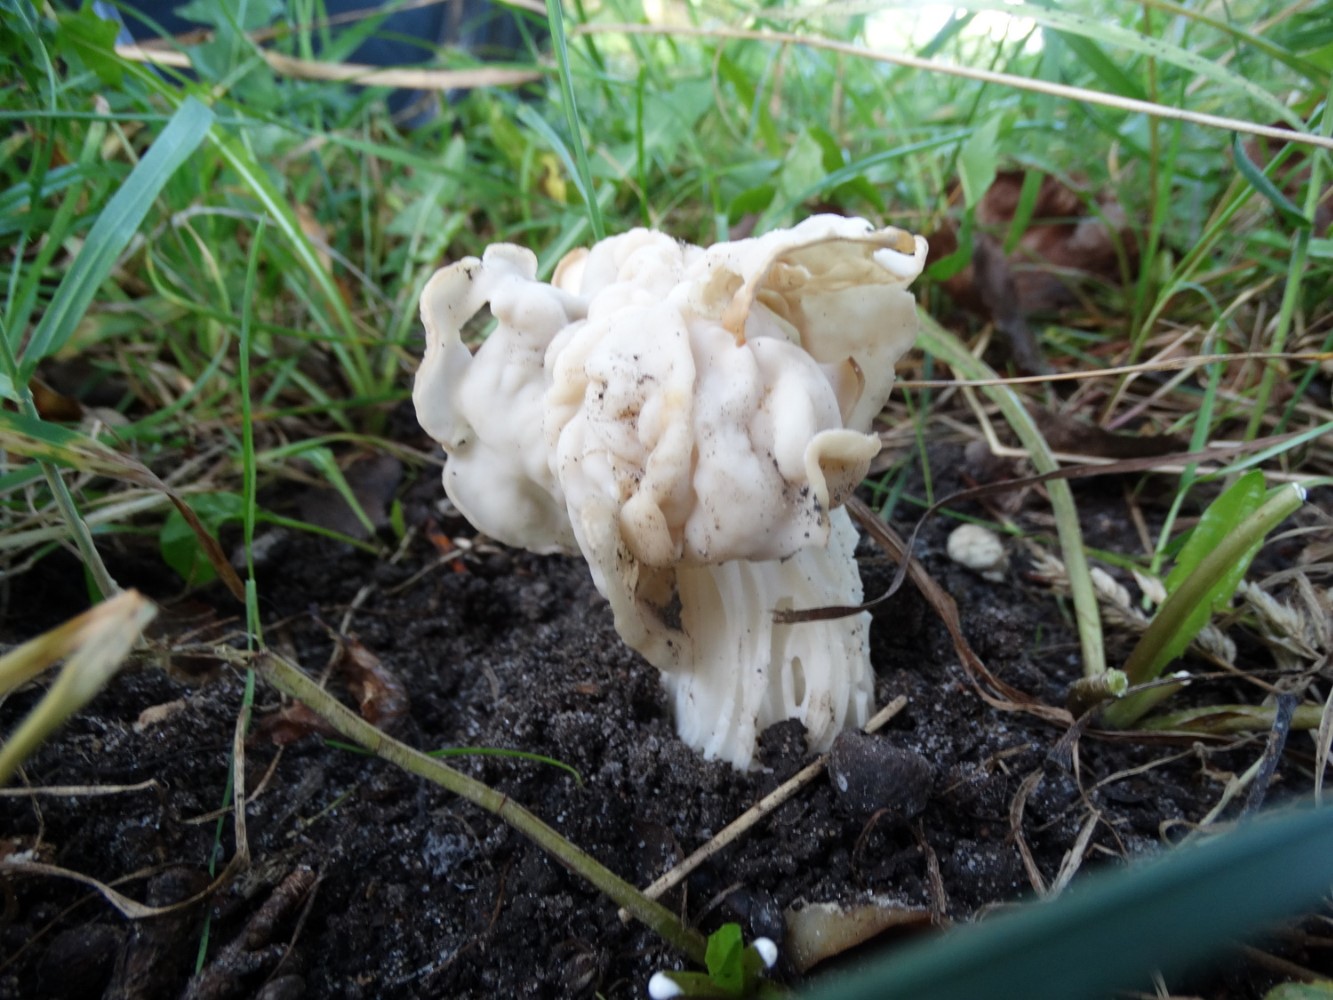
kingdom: Fungi
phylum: Ascomycota
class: Pezizomycetes
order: Pezizales
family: Helvellaceae
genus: Helvella
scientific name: Helvella crispa
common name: kruset foldhat
